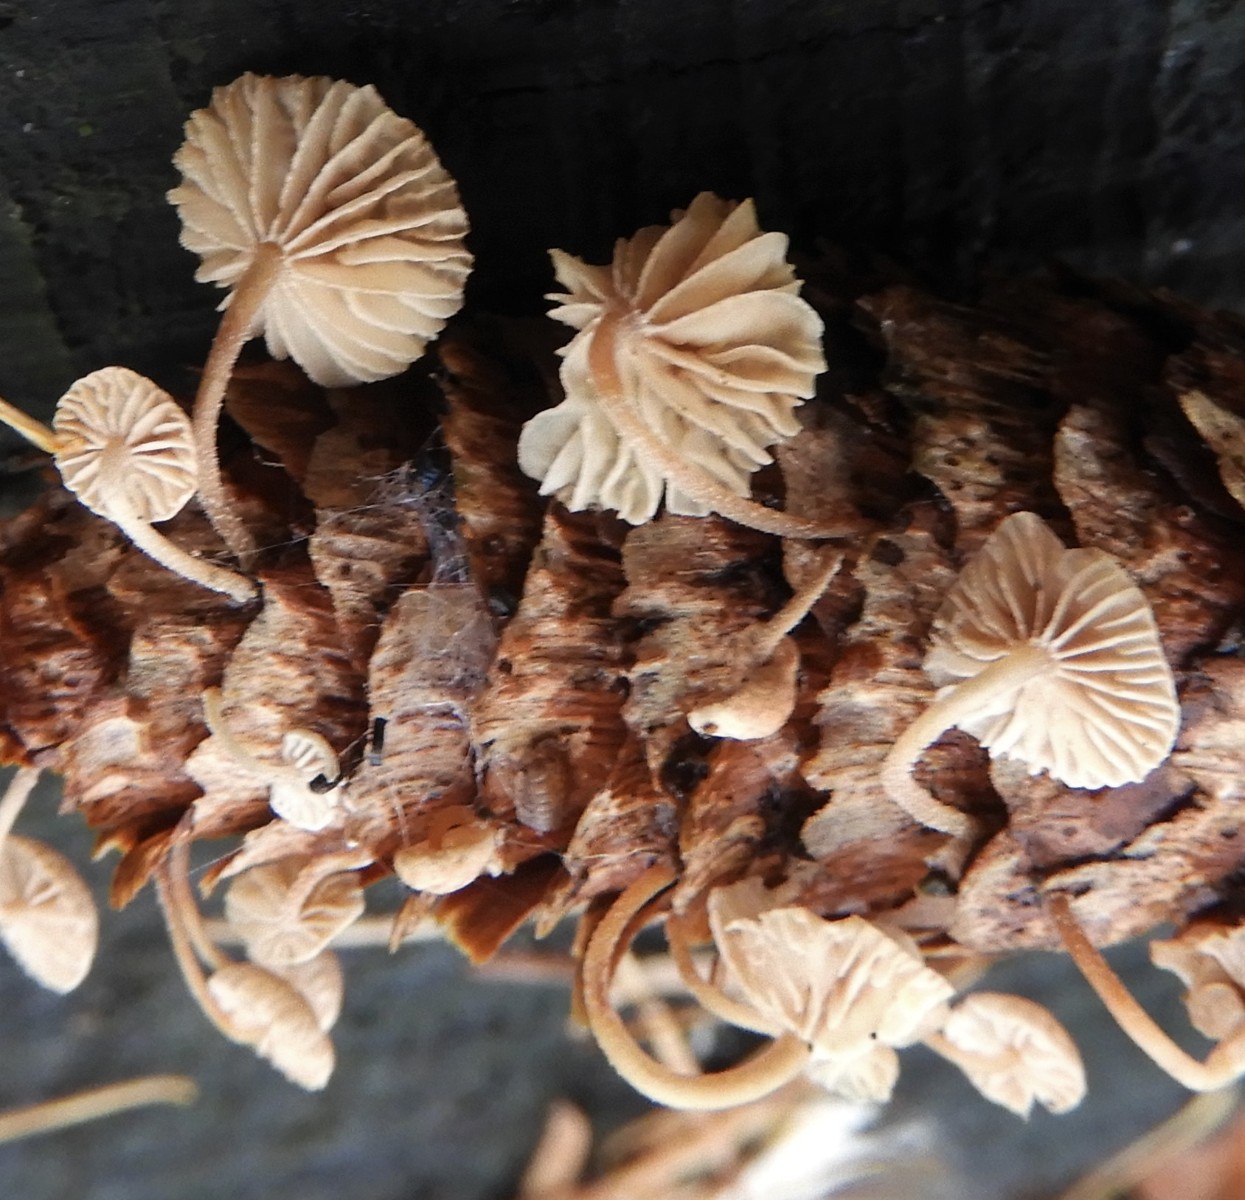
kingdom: Fungi
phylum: Basidiomycota
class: Agaricomycetes
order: Agaricales
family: Omphalotaceae
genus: Collybiopsis
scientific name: Collybiopsis ramealis
